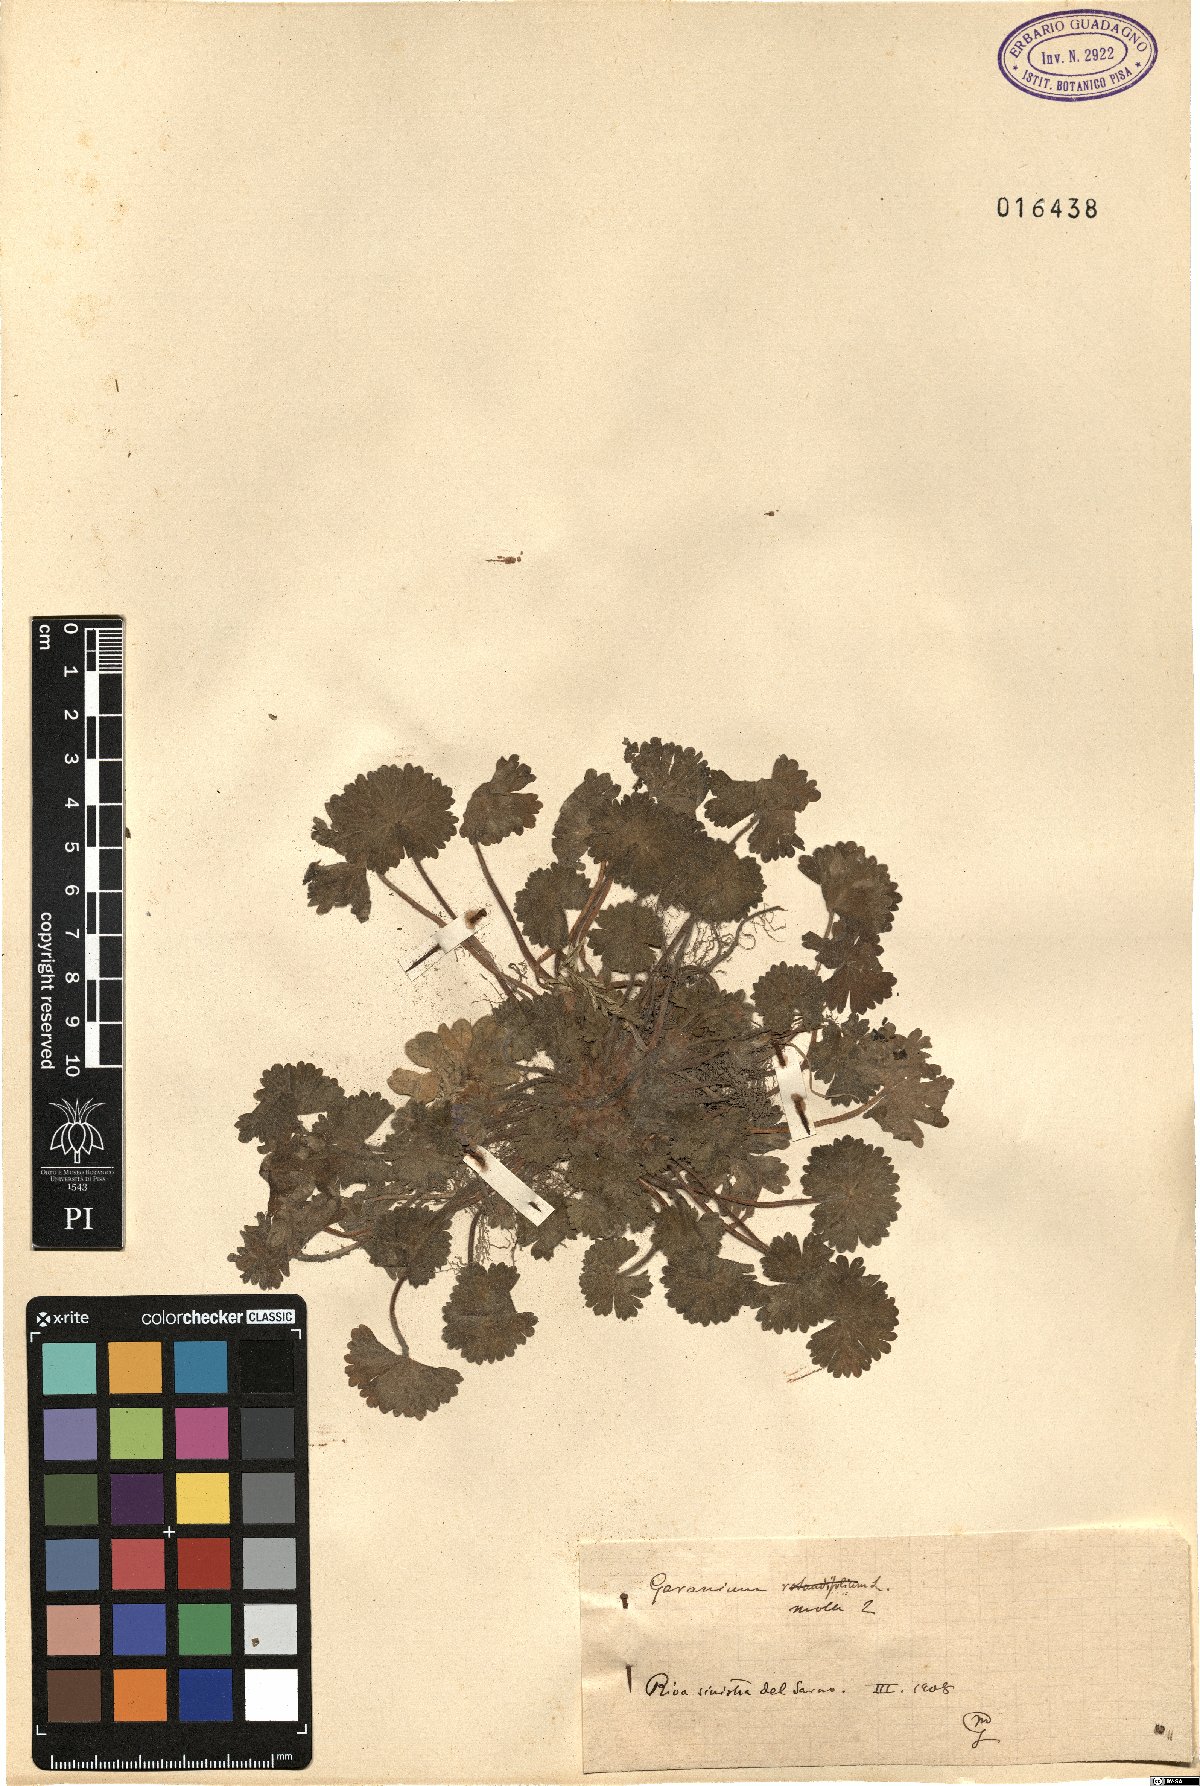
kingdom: Plantae
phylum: Tracheophyta
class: Magnoliopsida
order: Geraniales
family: Geraniaceae
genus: Geranium
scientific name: Geranium molle
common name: Dove's-foot crane's-bill
